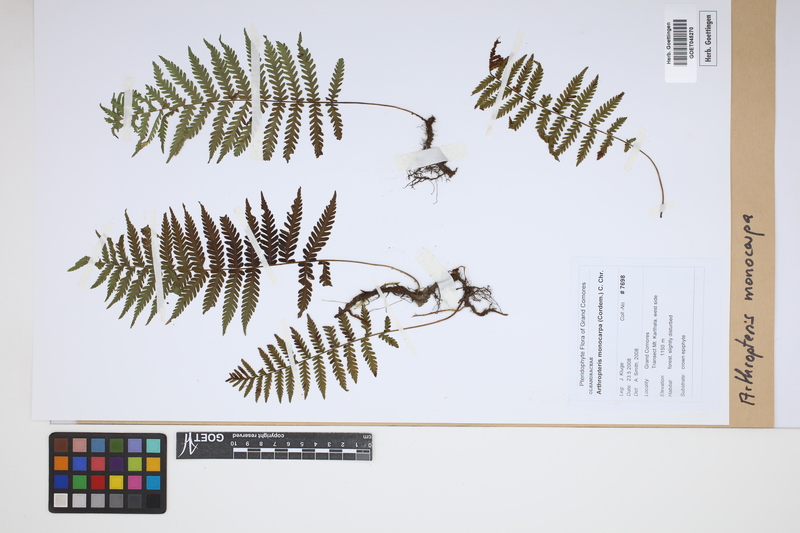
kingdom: Plantae
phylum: Tracheophyta
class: Polypodiopsida
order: Polypodiales
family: Tectariaceae
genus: Arthropteris
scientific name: Arthropteris monocarpa
